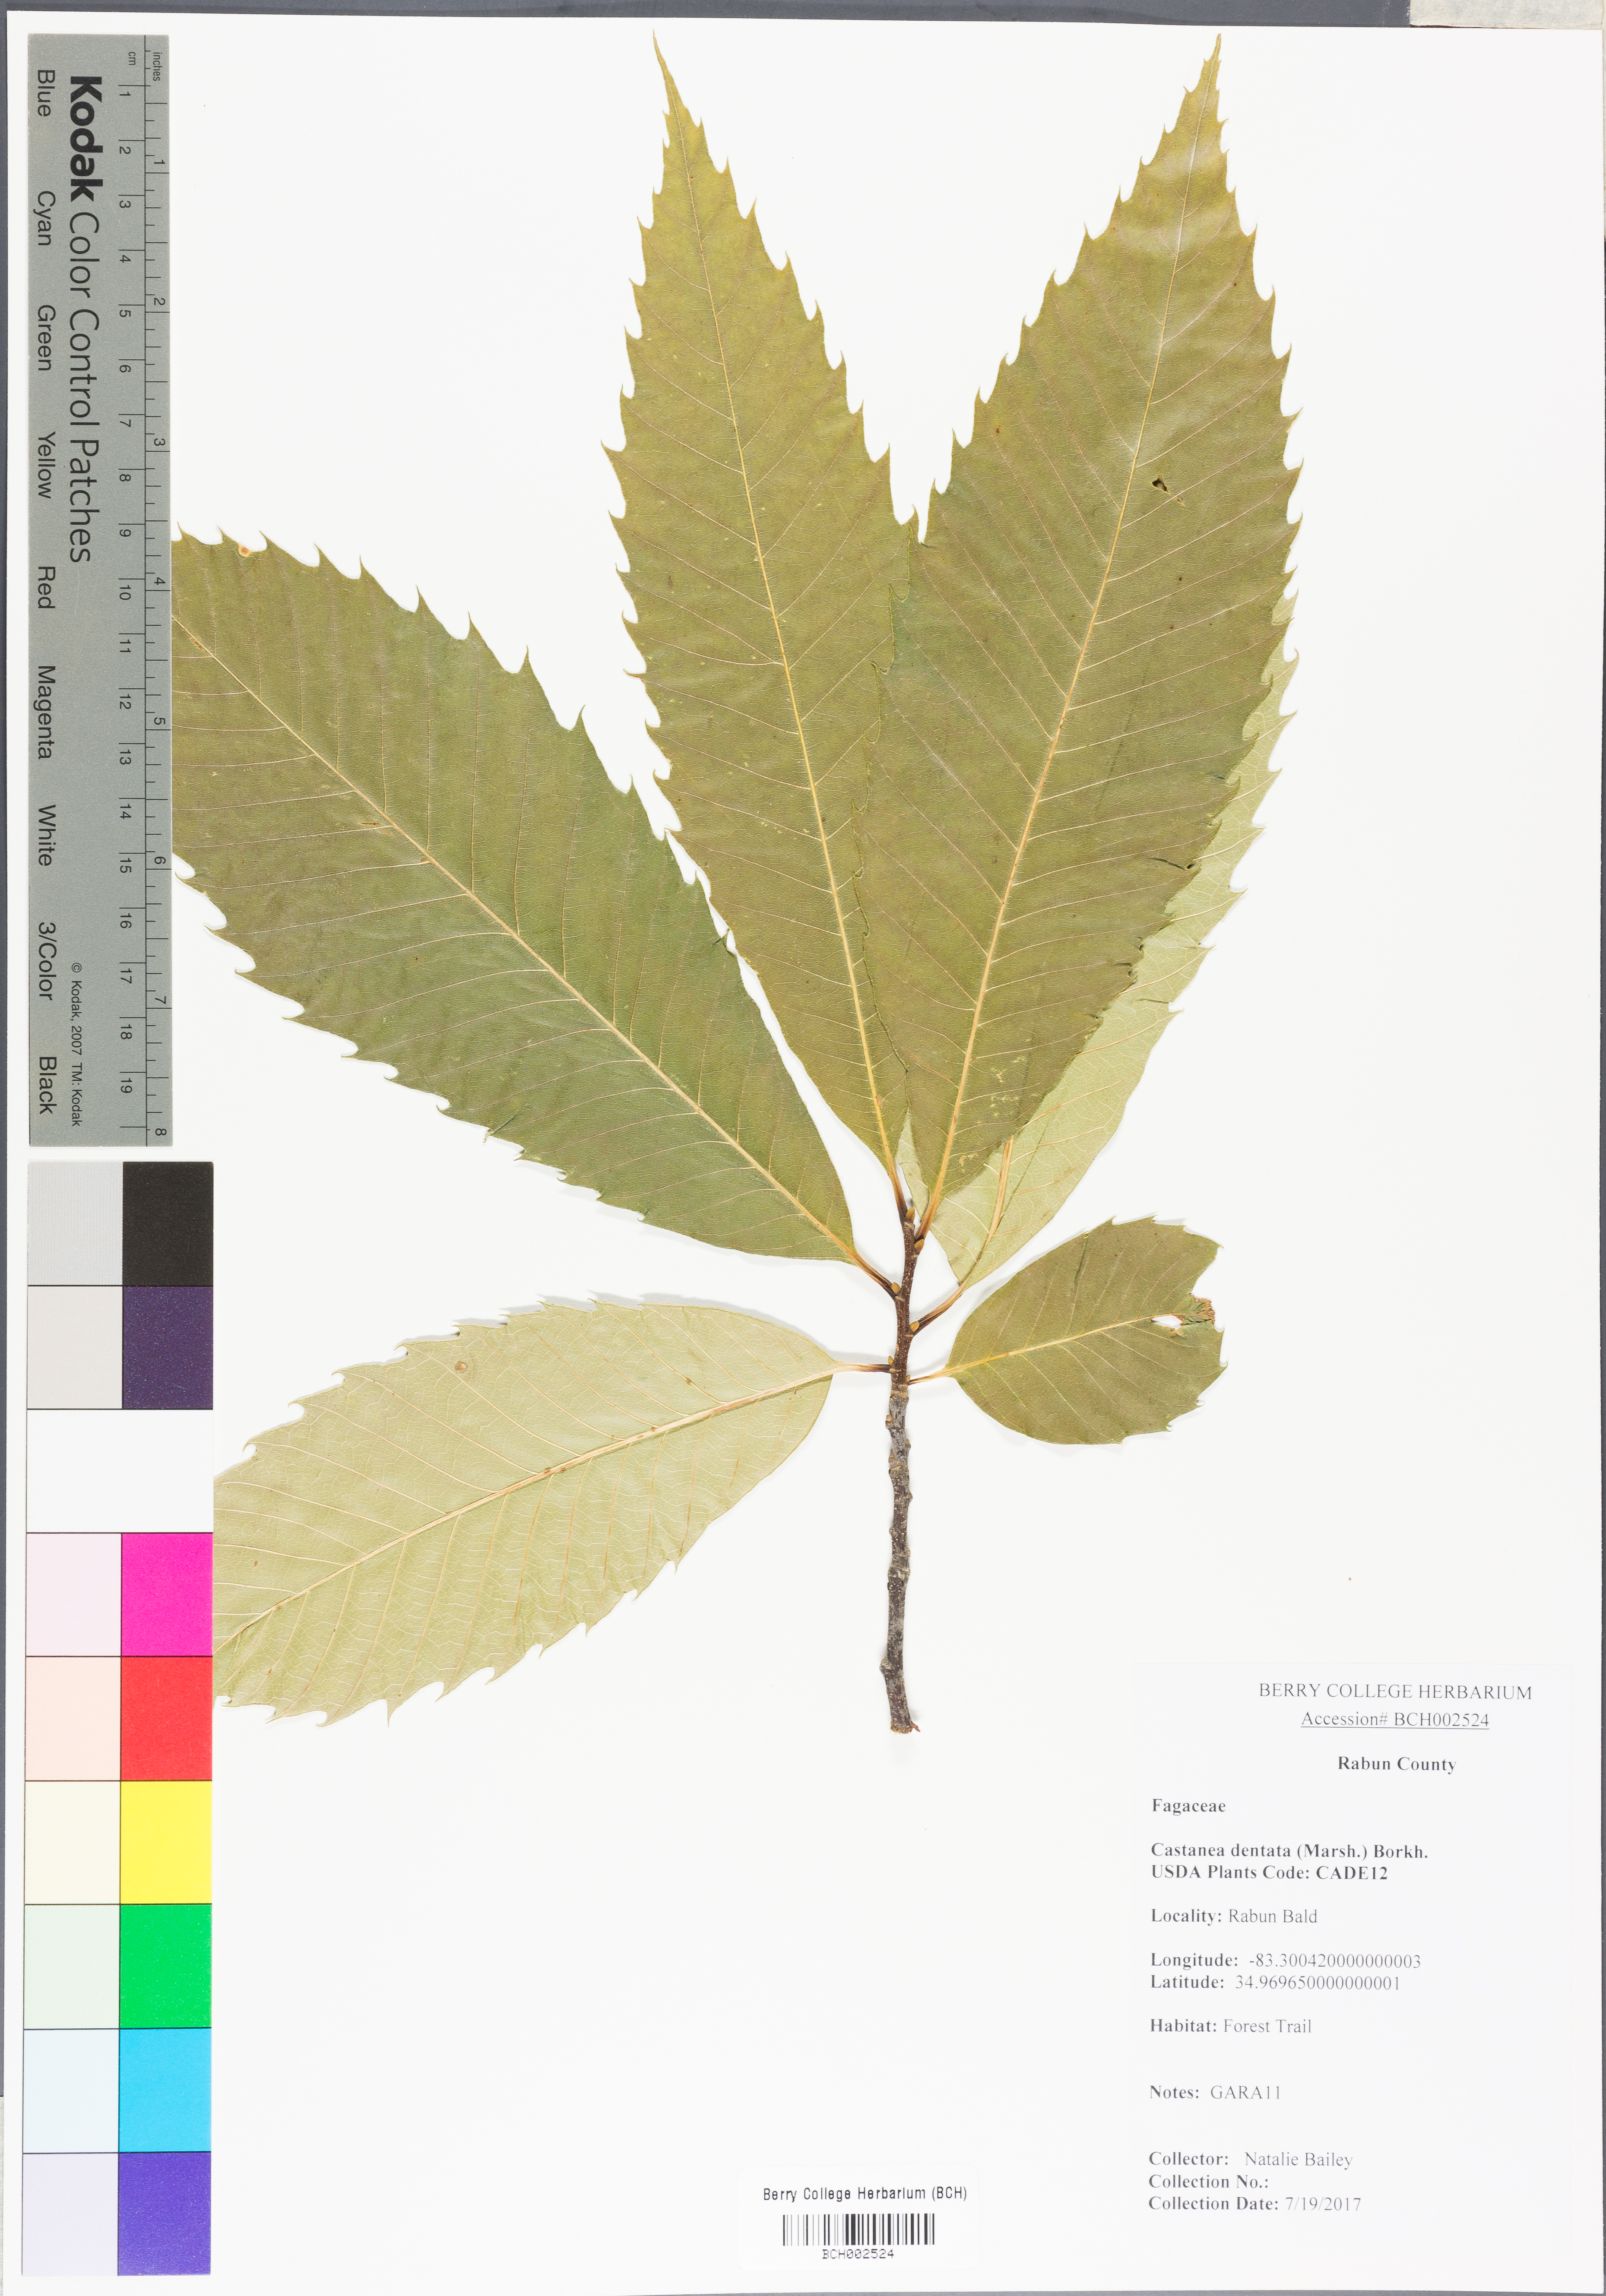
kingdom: Plantae
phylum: Tracheophyta
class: Magnoliopsida
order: Fagales
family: Fagaceae
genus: Castanea
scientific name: Castanea dentata
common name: American chestnut
